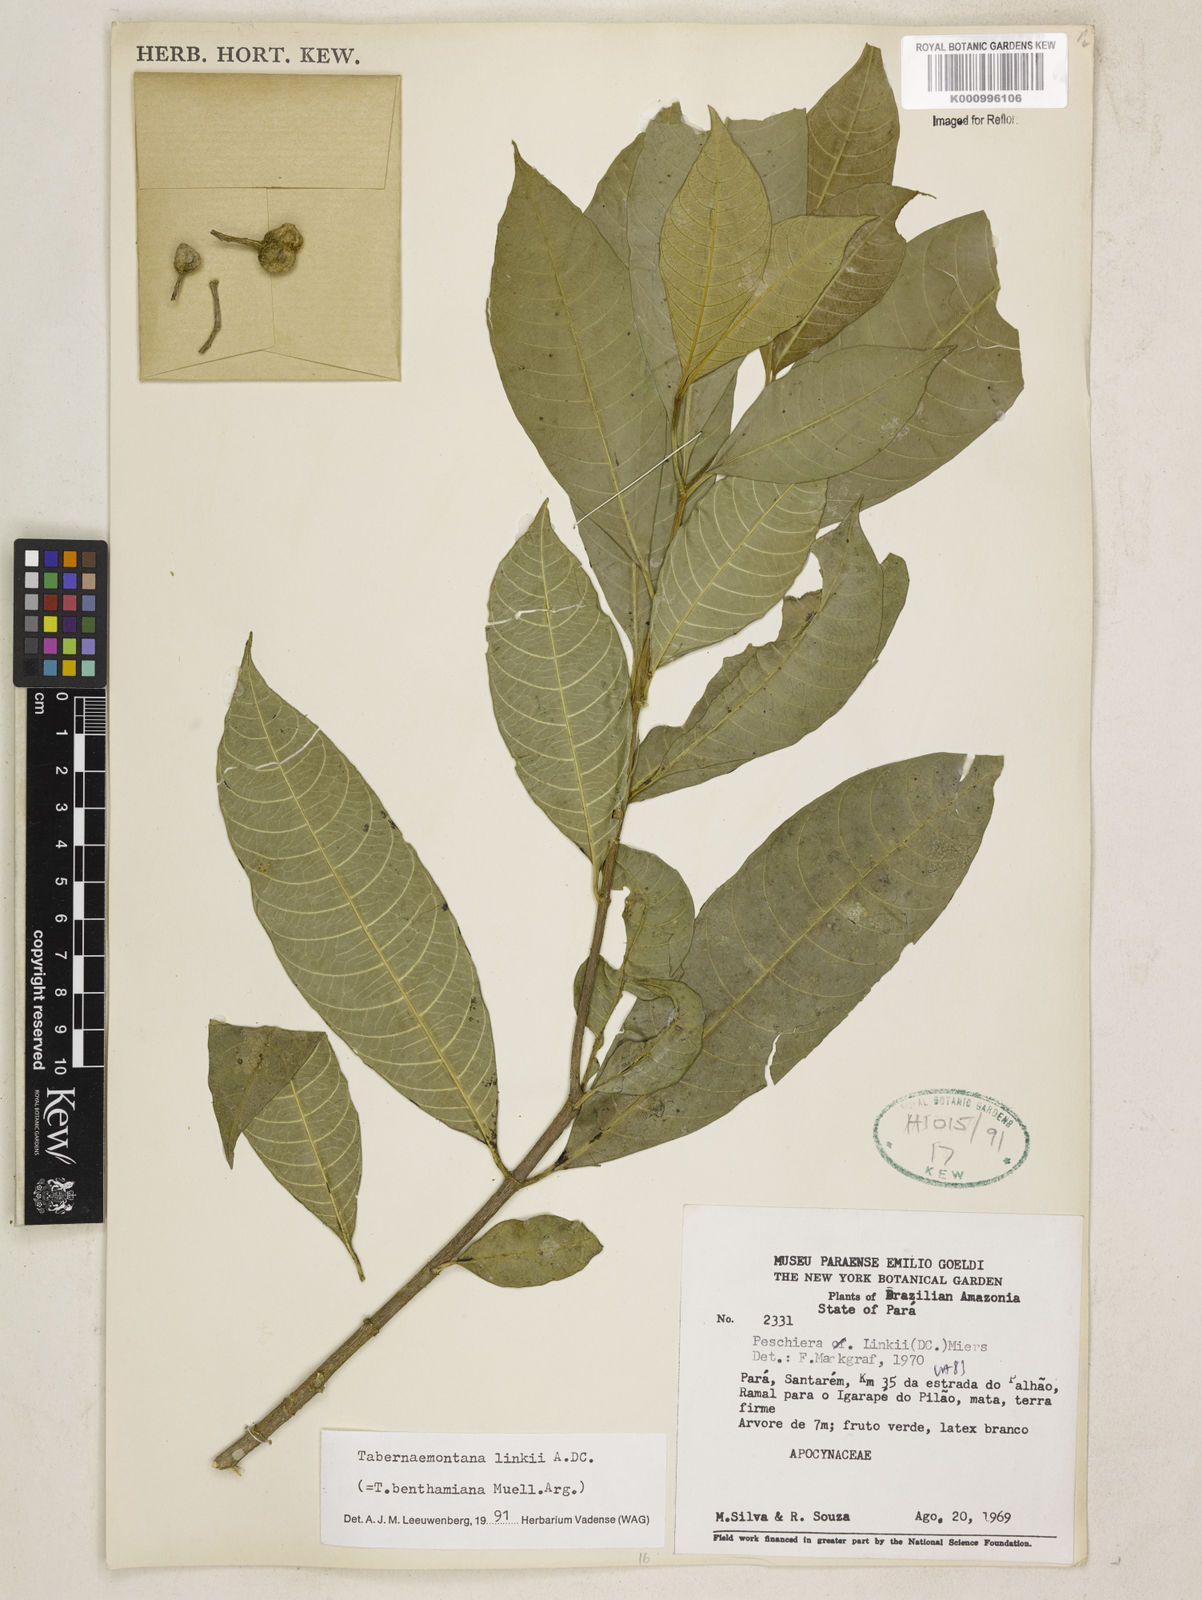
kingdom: Plantae
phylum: Tracheophyta
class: Magnoliopsida
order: Gentianales
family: Apocynaceae
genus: Tabernaemontana
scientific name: Tabernaemontana linkii
